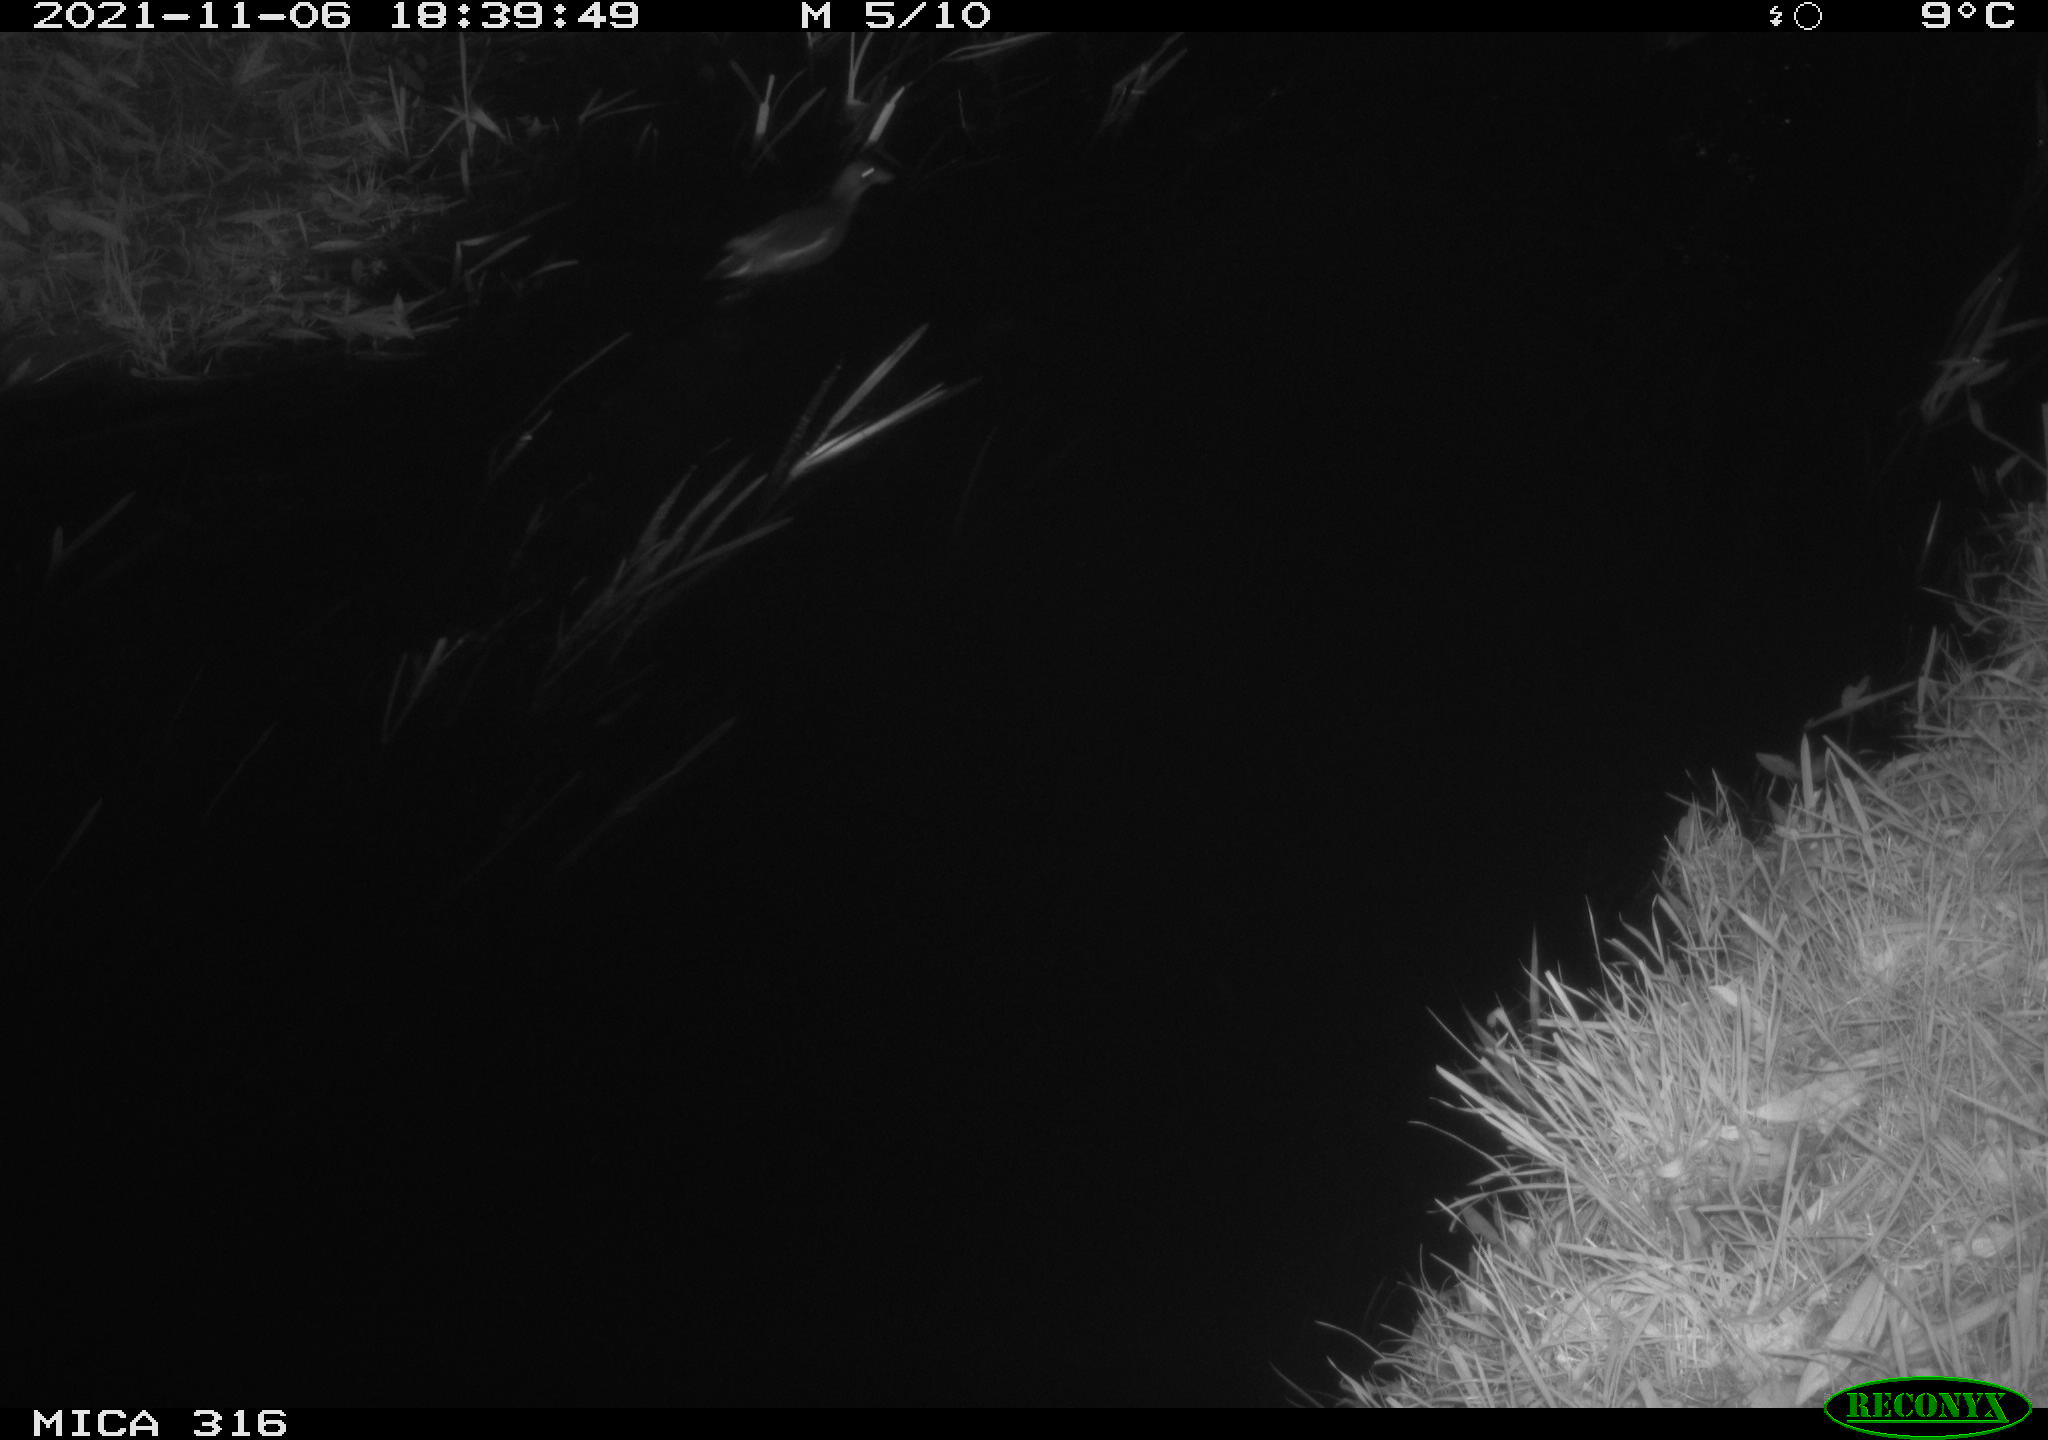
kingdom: Animalia
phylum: Chordata
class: Aves
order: Gruiformes
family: Rallidae
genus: Gallinula
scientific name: Gallinula chloropus
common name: Common moorhen
